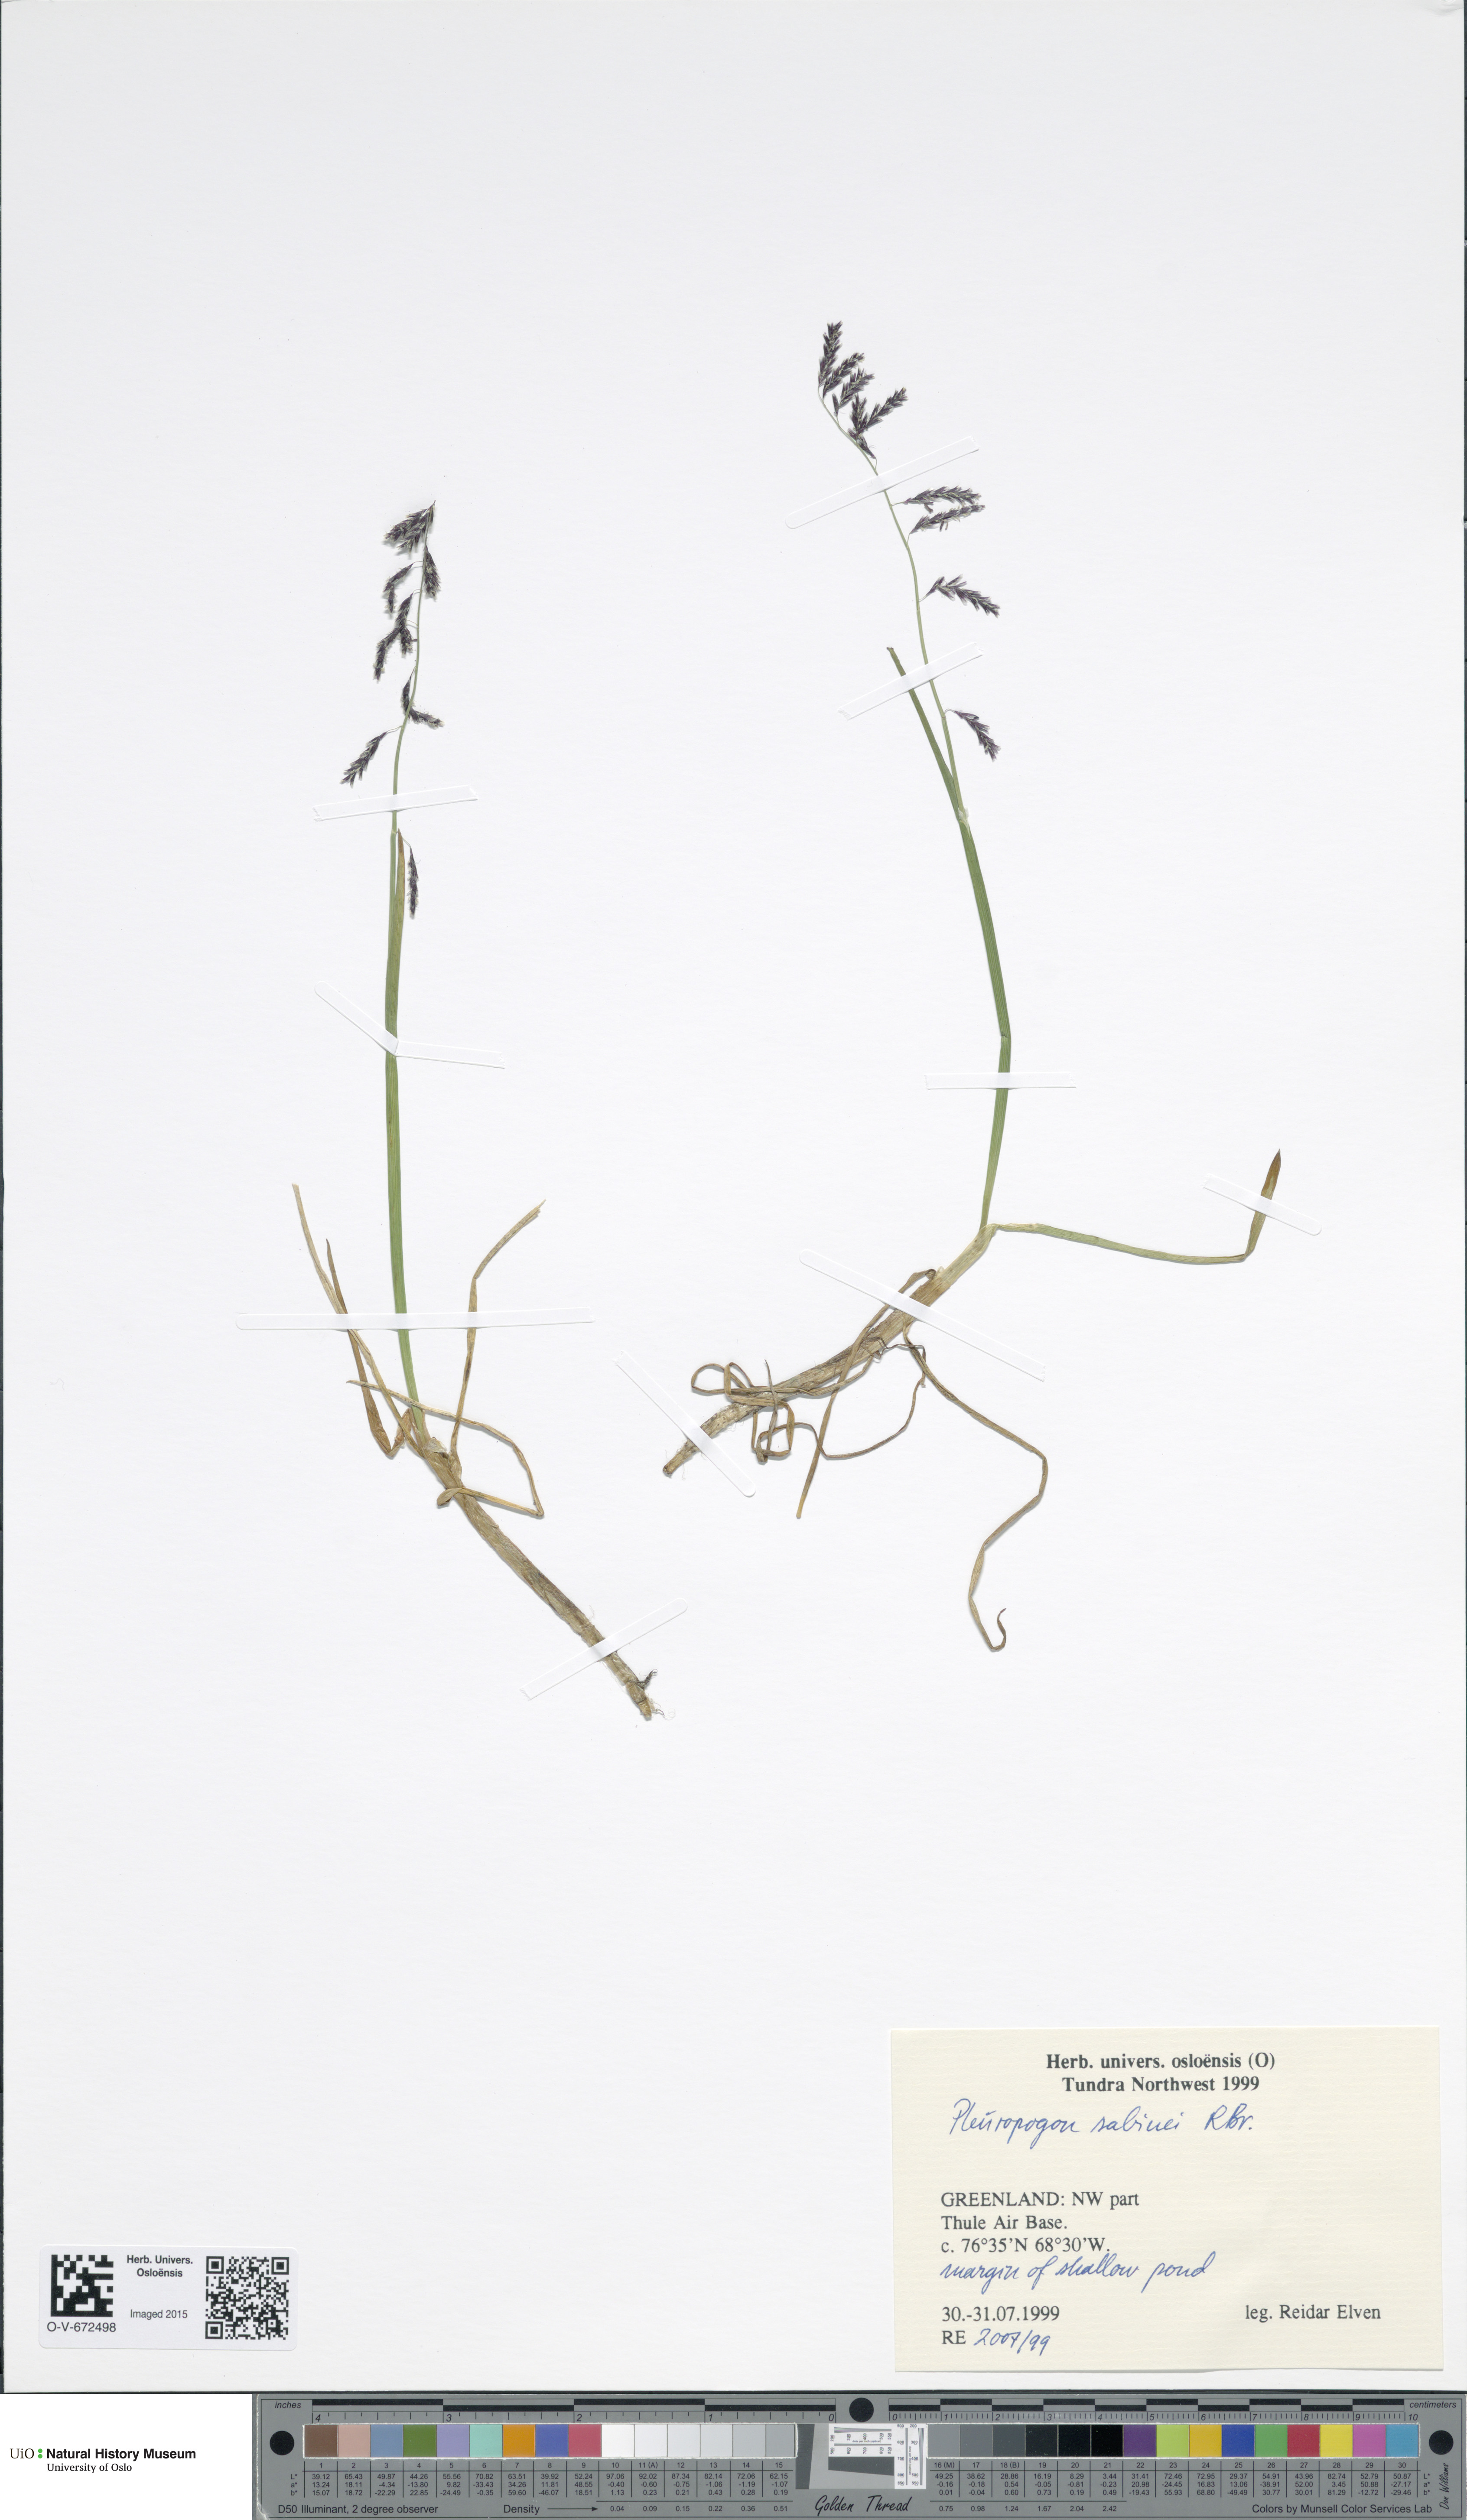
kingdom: Plantae
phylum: Tracheophyta
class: Liliopsida
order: Poales
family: Poaceae
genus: Pleuropogon
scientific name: Pleuropogon sabinei
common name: Sabine's false semaphoregrass
